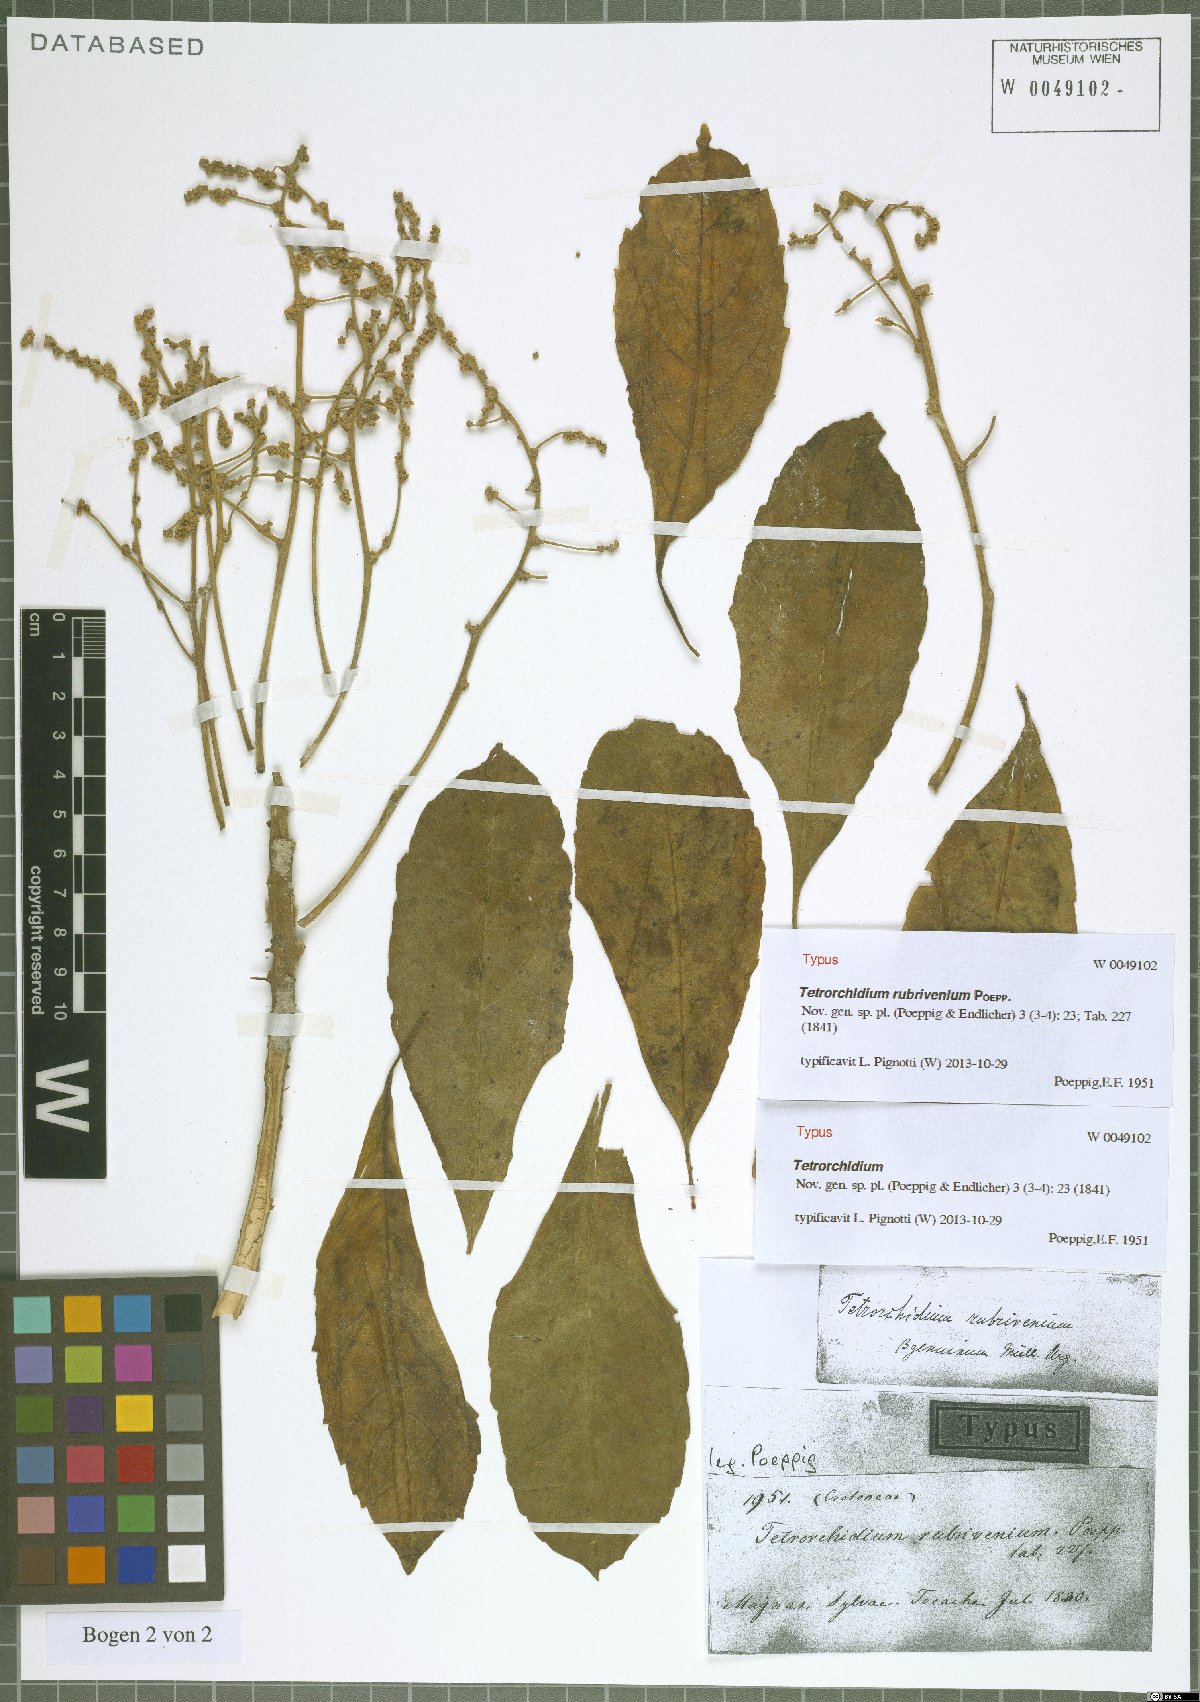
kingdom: Plantae
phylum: Tracheophyta
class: Magnoliopsida
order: Malpighiales
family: Euphorbiaceae
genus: Tetrorchidium
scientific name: Tetrorchidium rubrivenium
